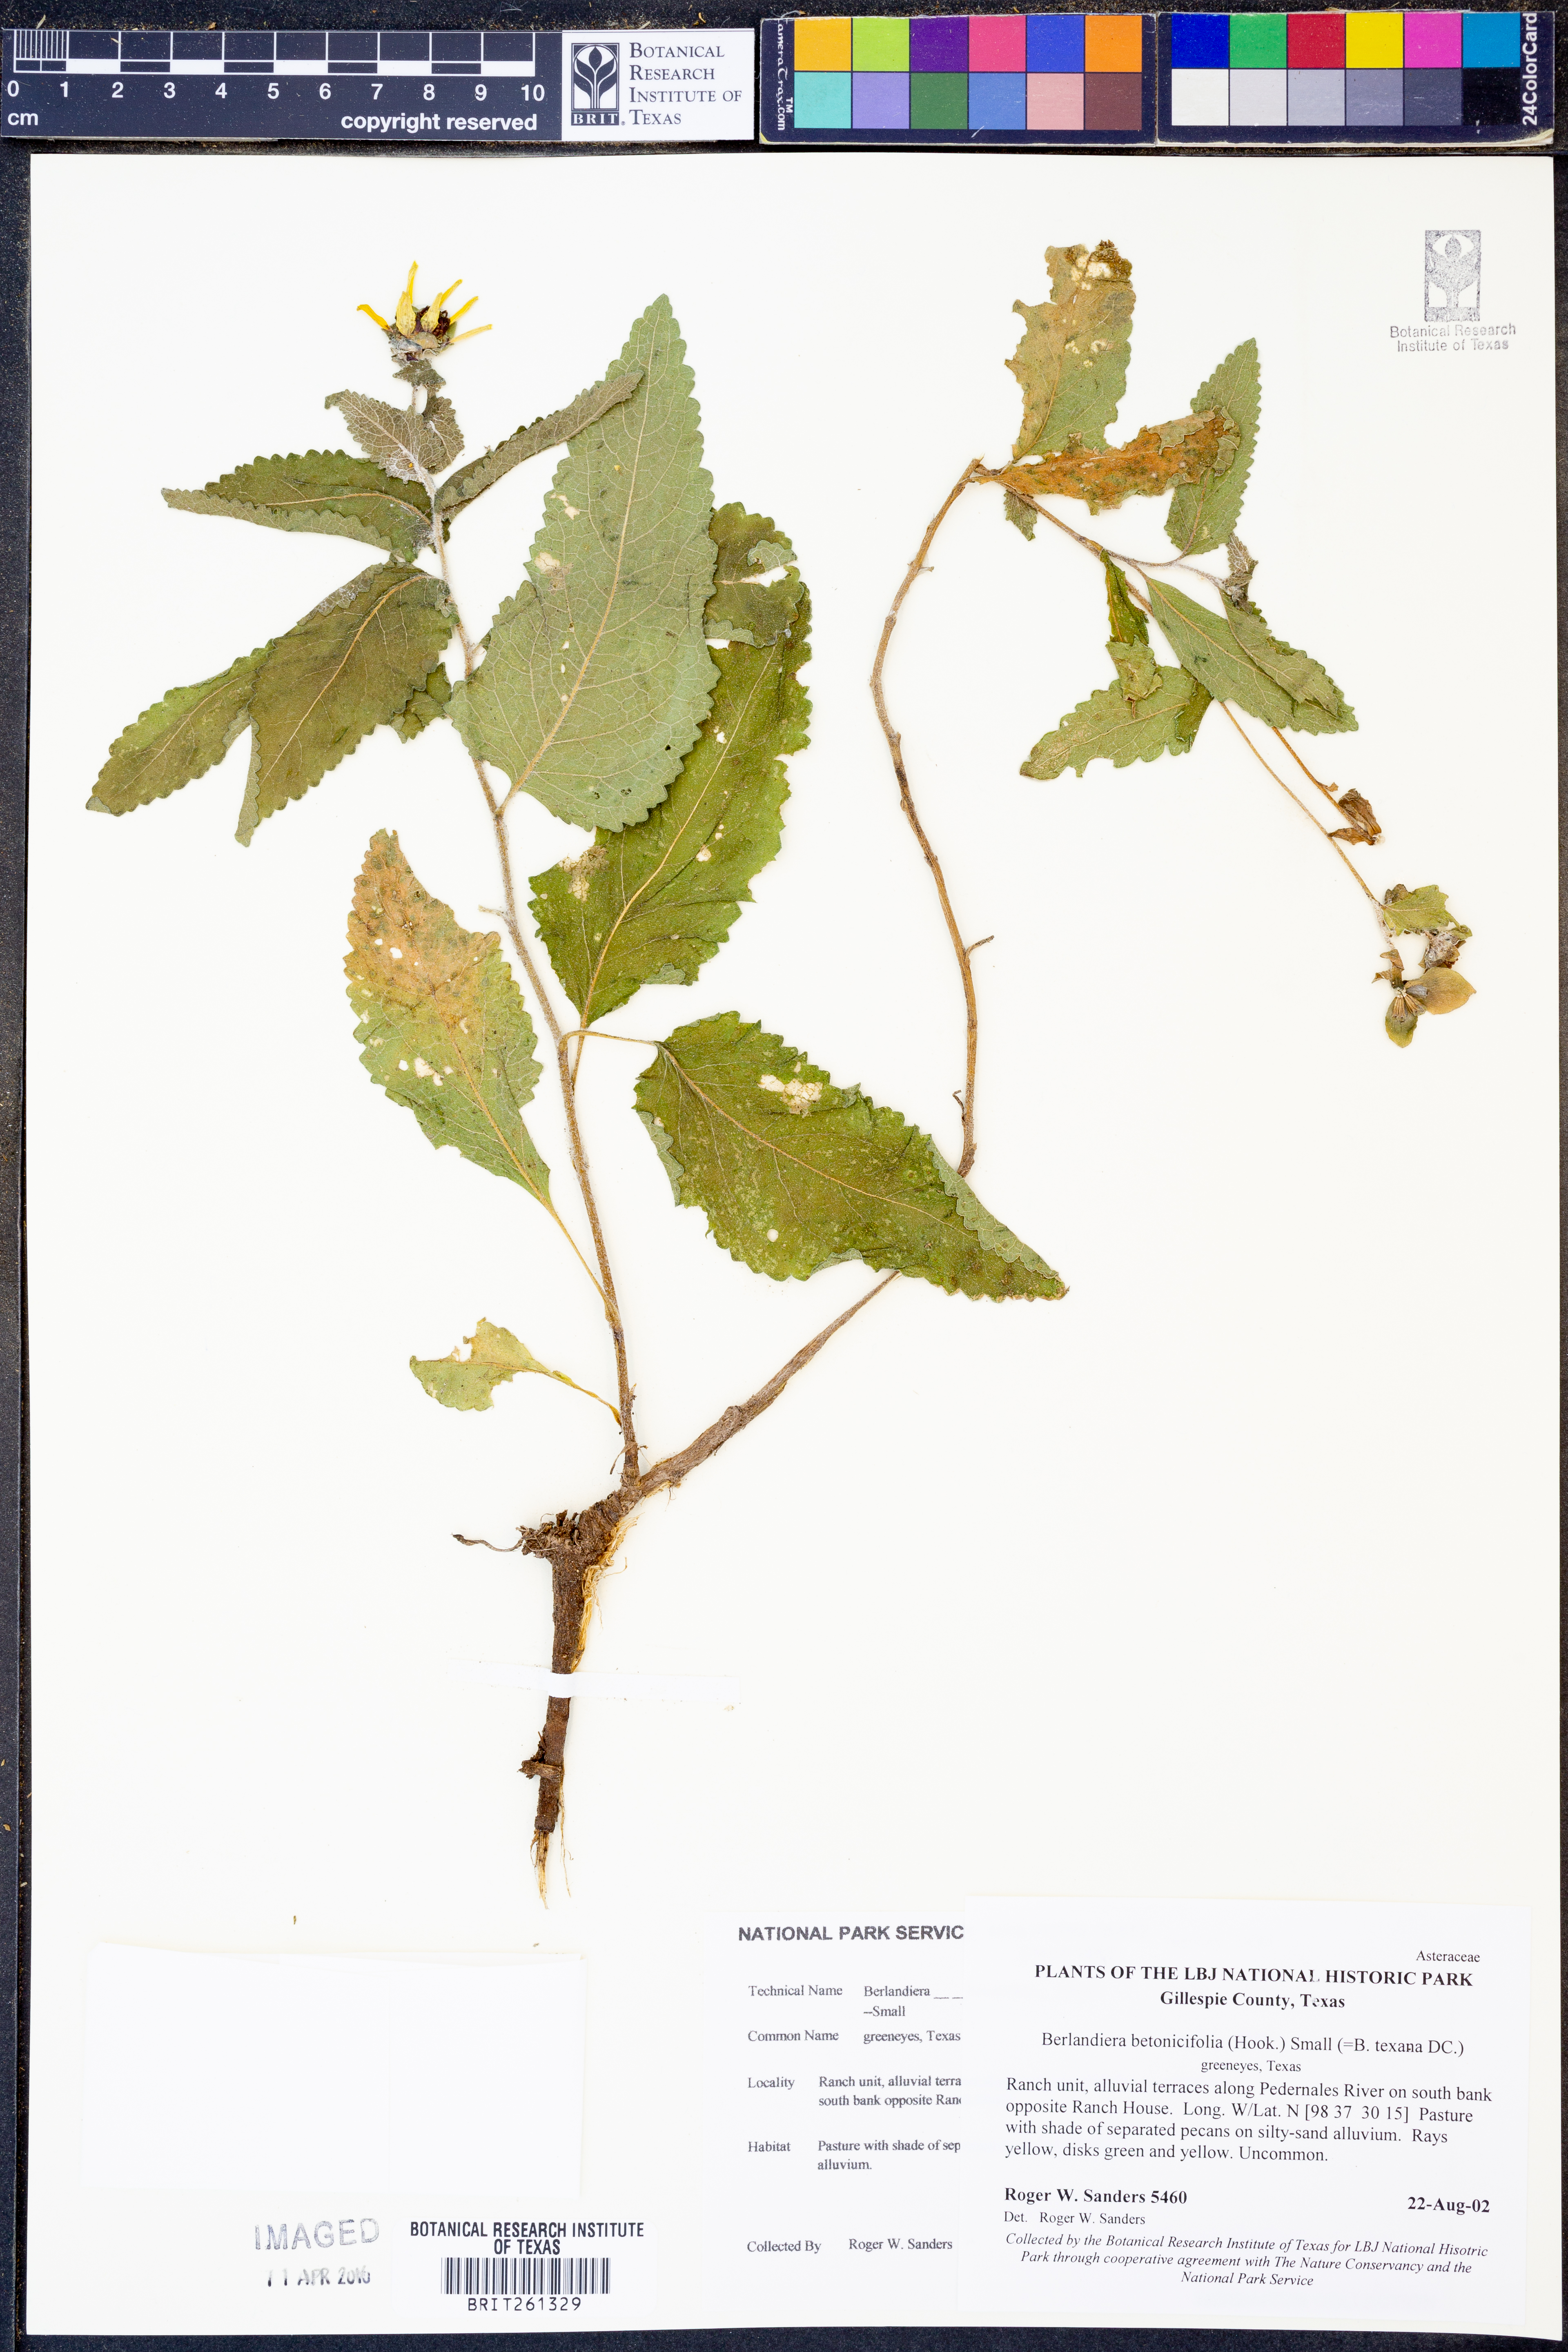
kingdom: Plantae
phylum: Tracheophyta
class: Magnoliopsida
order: Asterales
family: Asteraceae
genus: Berlandiera
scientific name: Berlandiera betonicifolia
